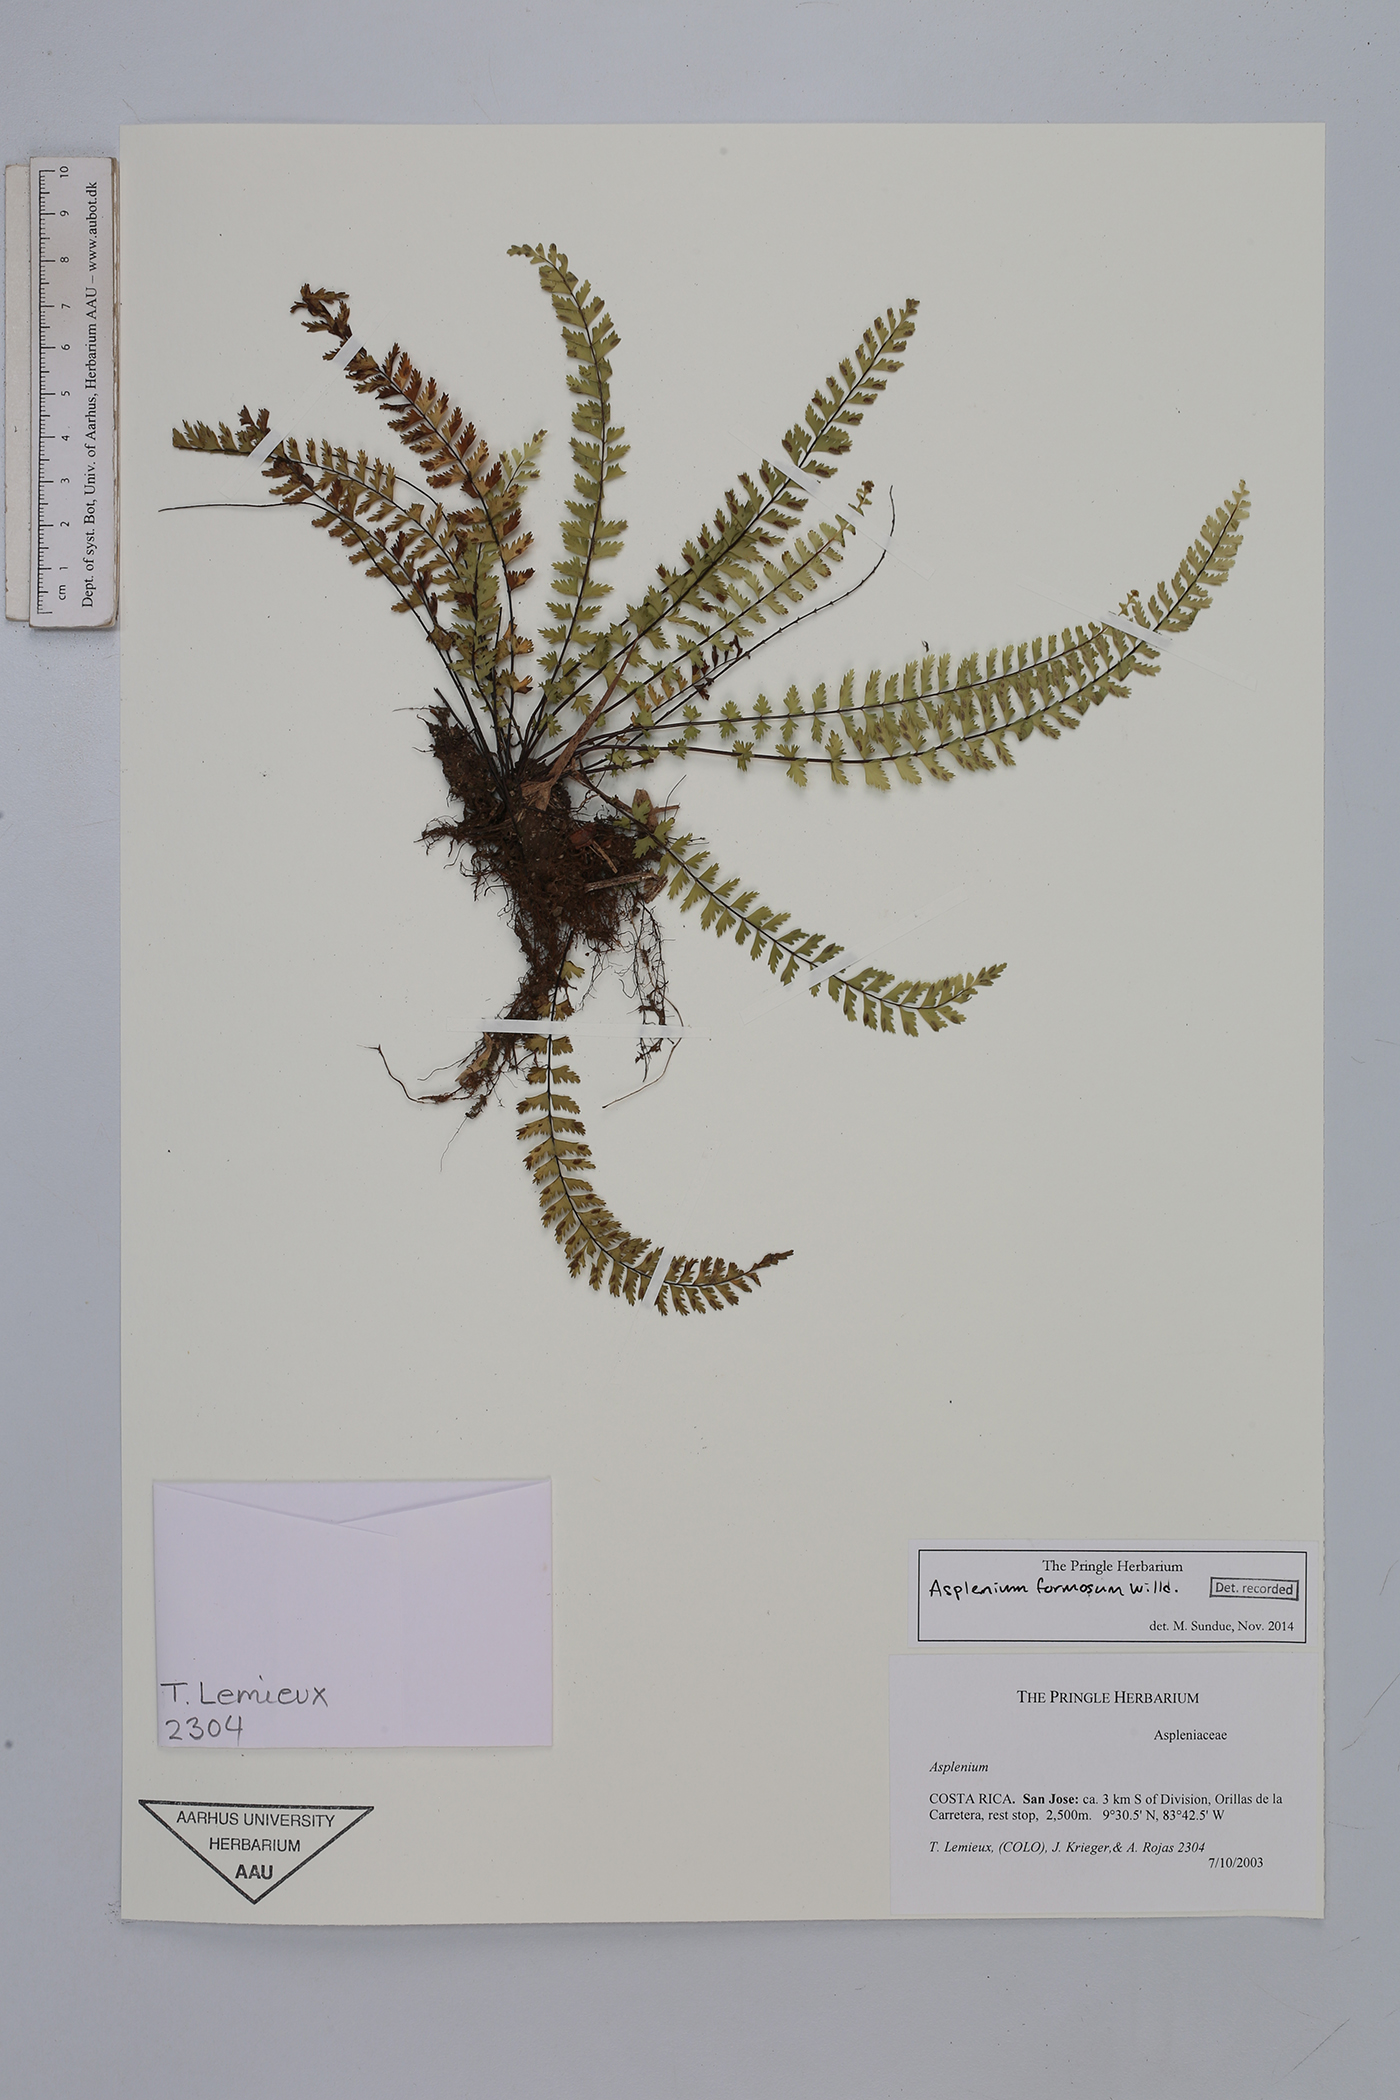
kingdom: Plantae
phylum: Tracheophyta
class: Polypodiopsida
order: Polypodiales
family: Aspleniaceae
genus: Asplenium
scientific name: Asplenium formosum
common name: Showy spleenwort
